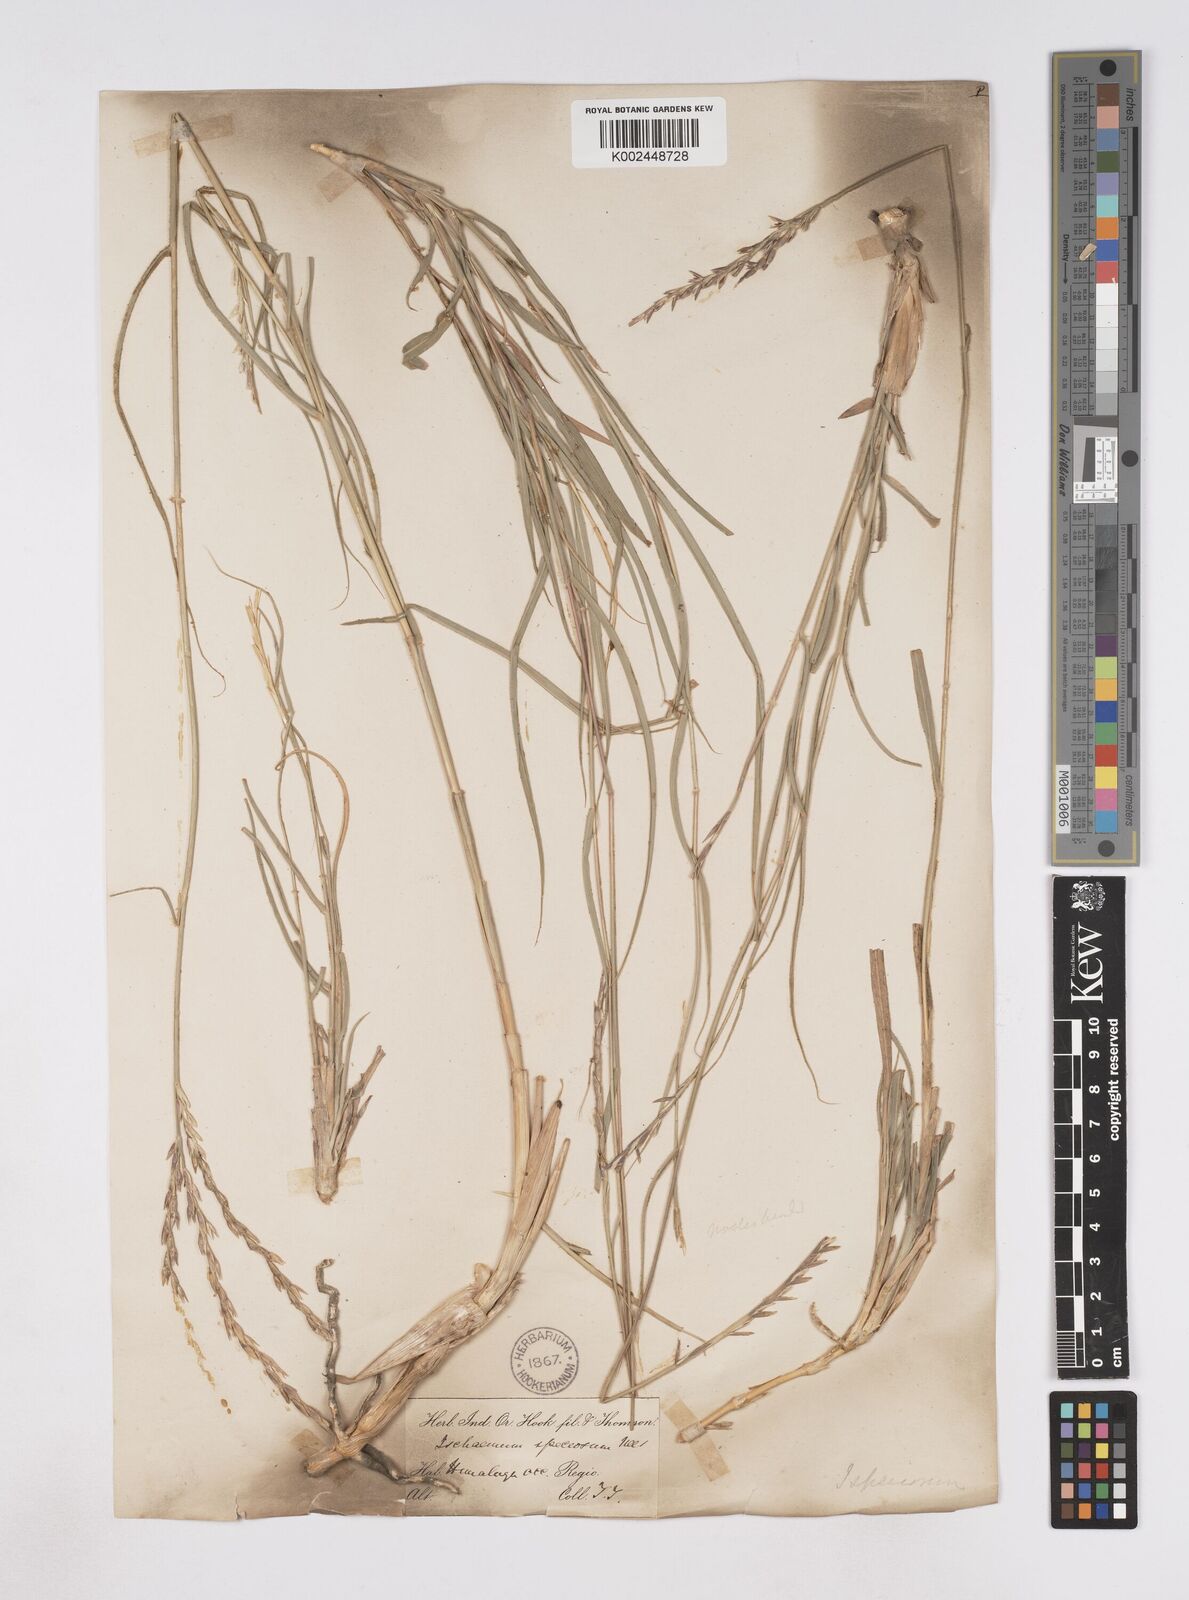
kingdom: Plantae
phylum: Tracheophyta
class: Liliopsida
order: Poales
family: Poaceae
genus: Phacelurus
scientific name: Phacelurus speciosus
